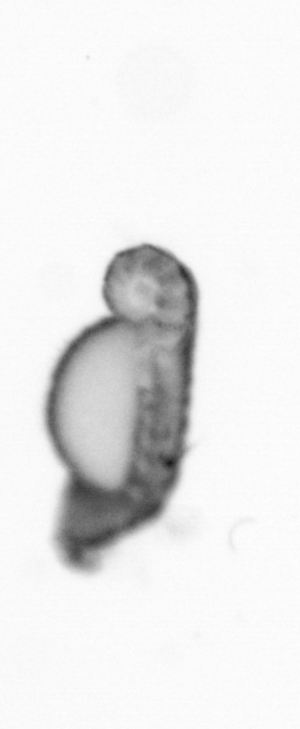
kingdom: Animalia
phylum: Annelida
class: Polychaeta
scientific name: Polychaeta
